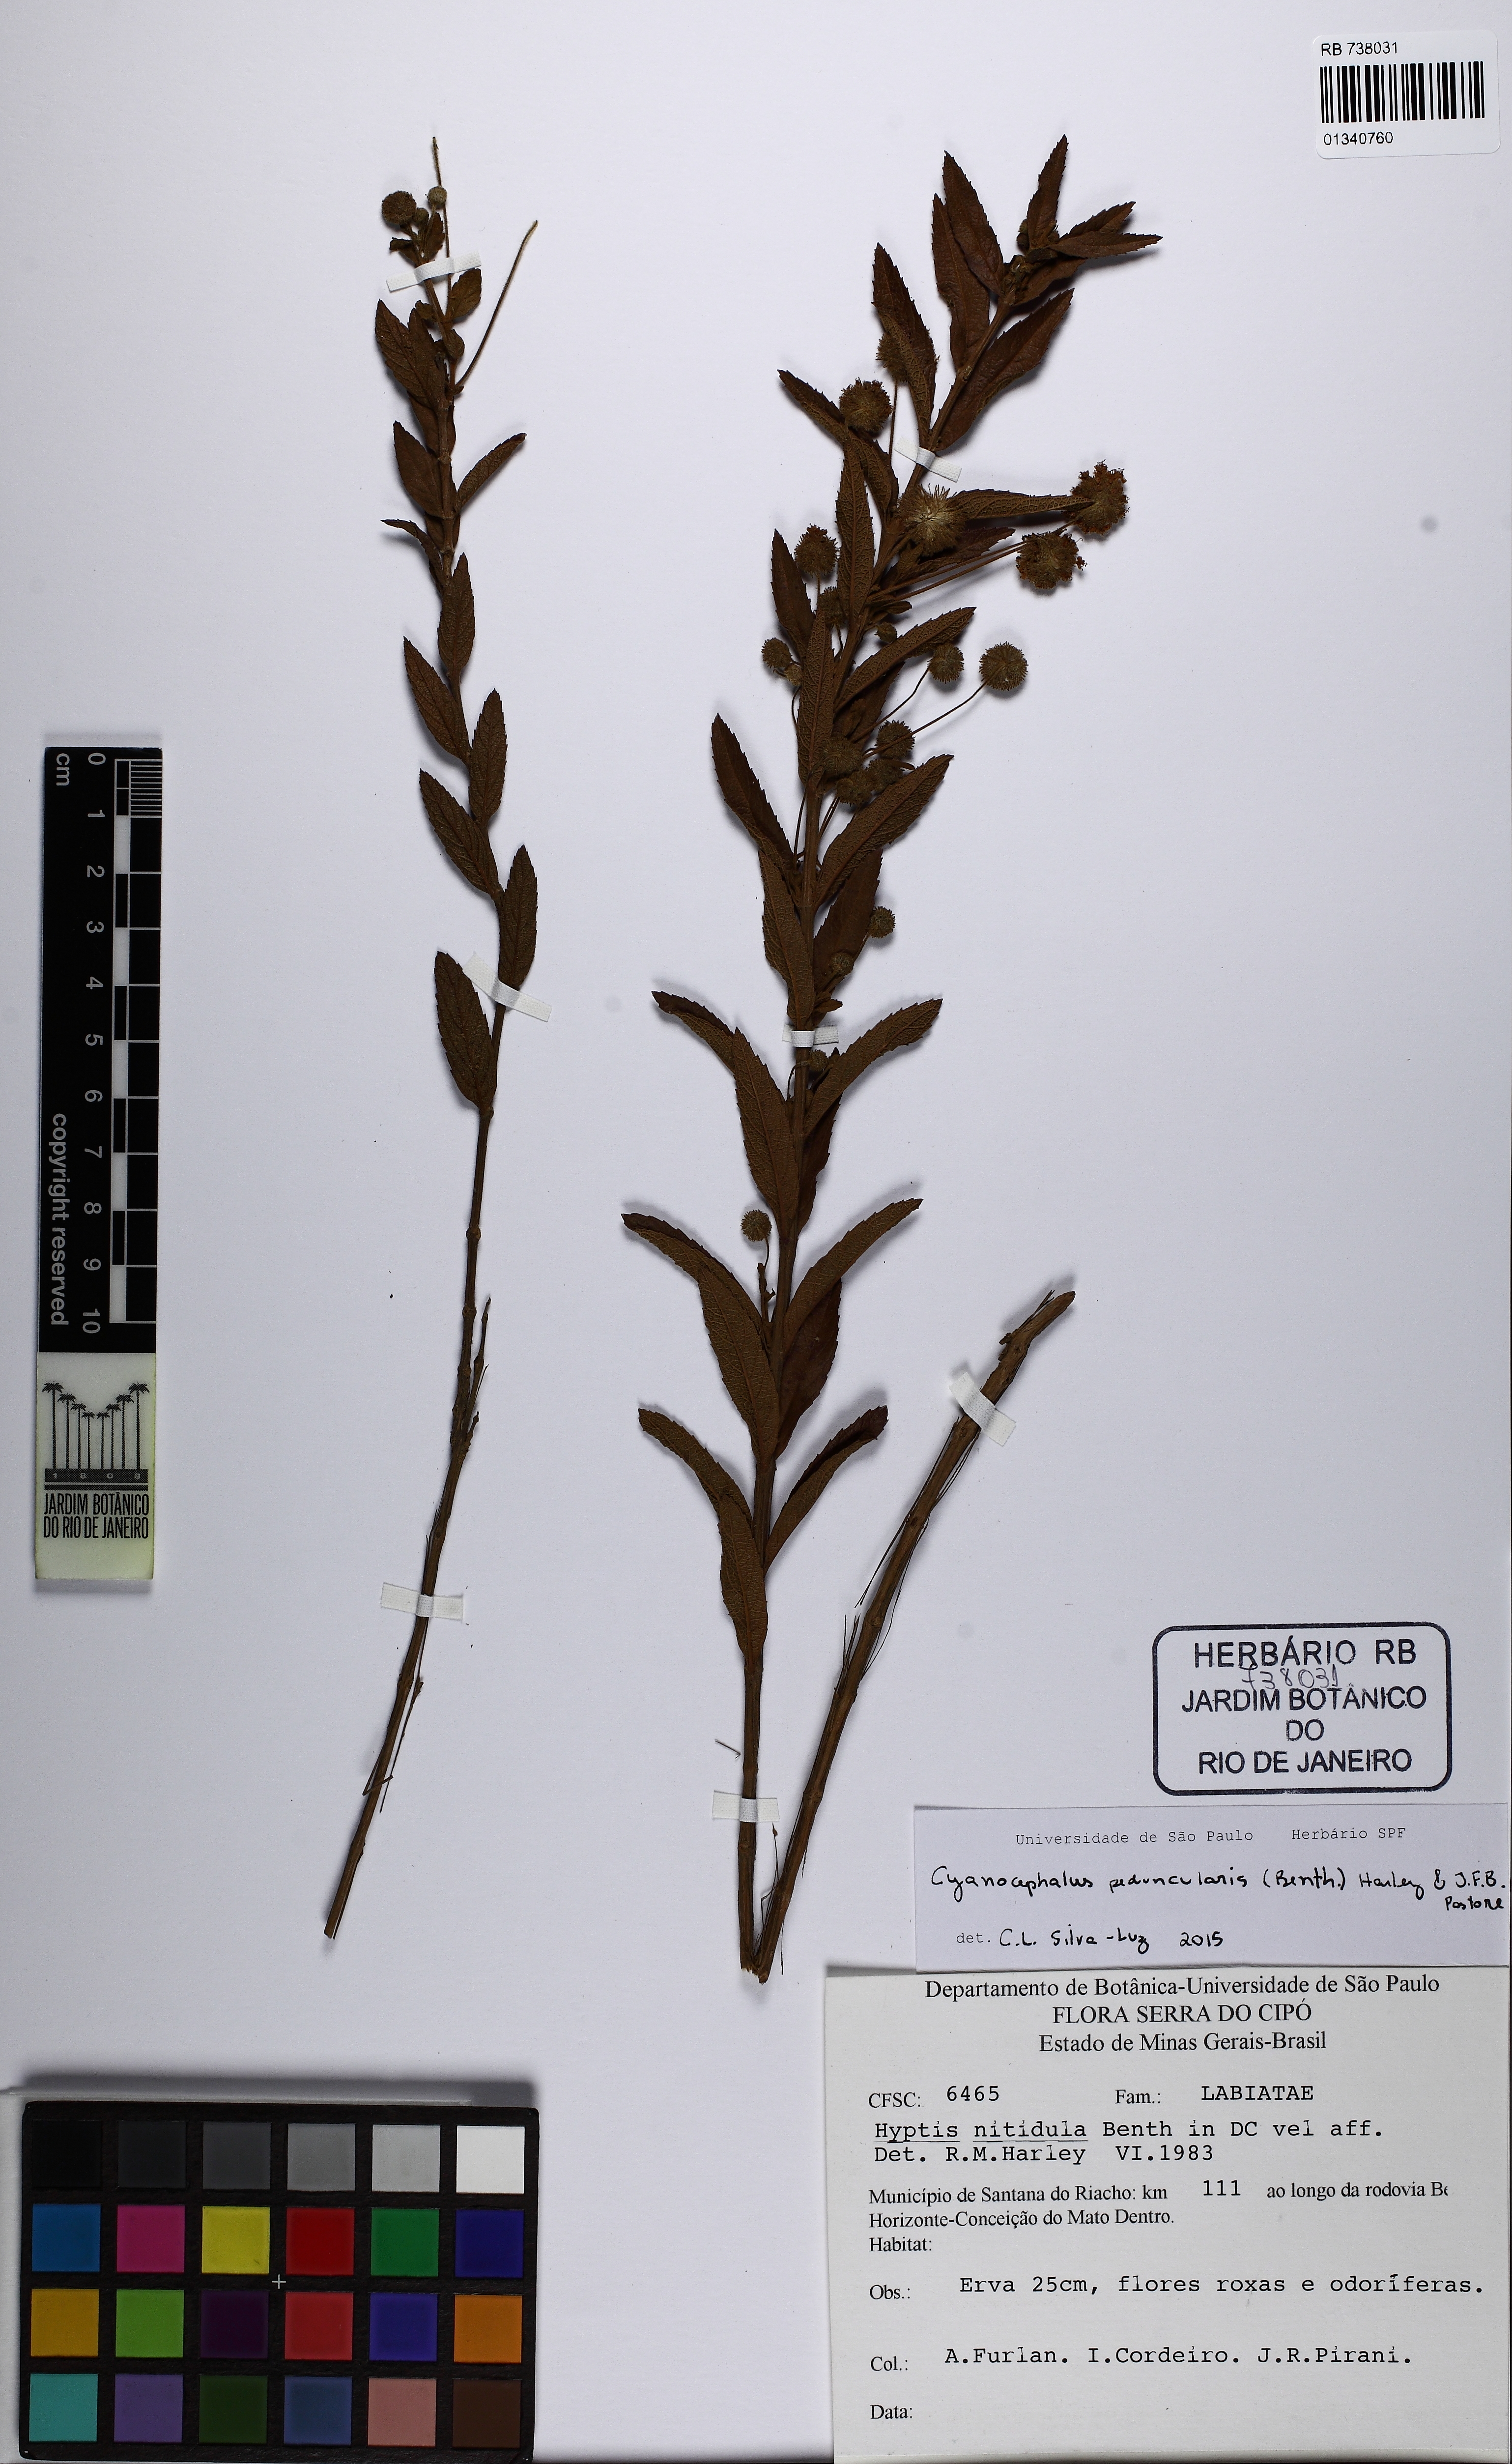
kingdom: Plantae
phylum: Tracheophyta
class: Magnoliopsida
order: Lamiales
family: Lamiaceae
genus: Cyanocephalus
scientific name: Cyanocephalus peduncularis
